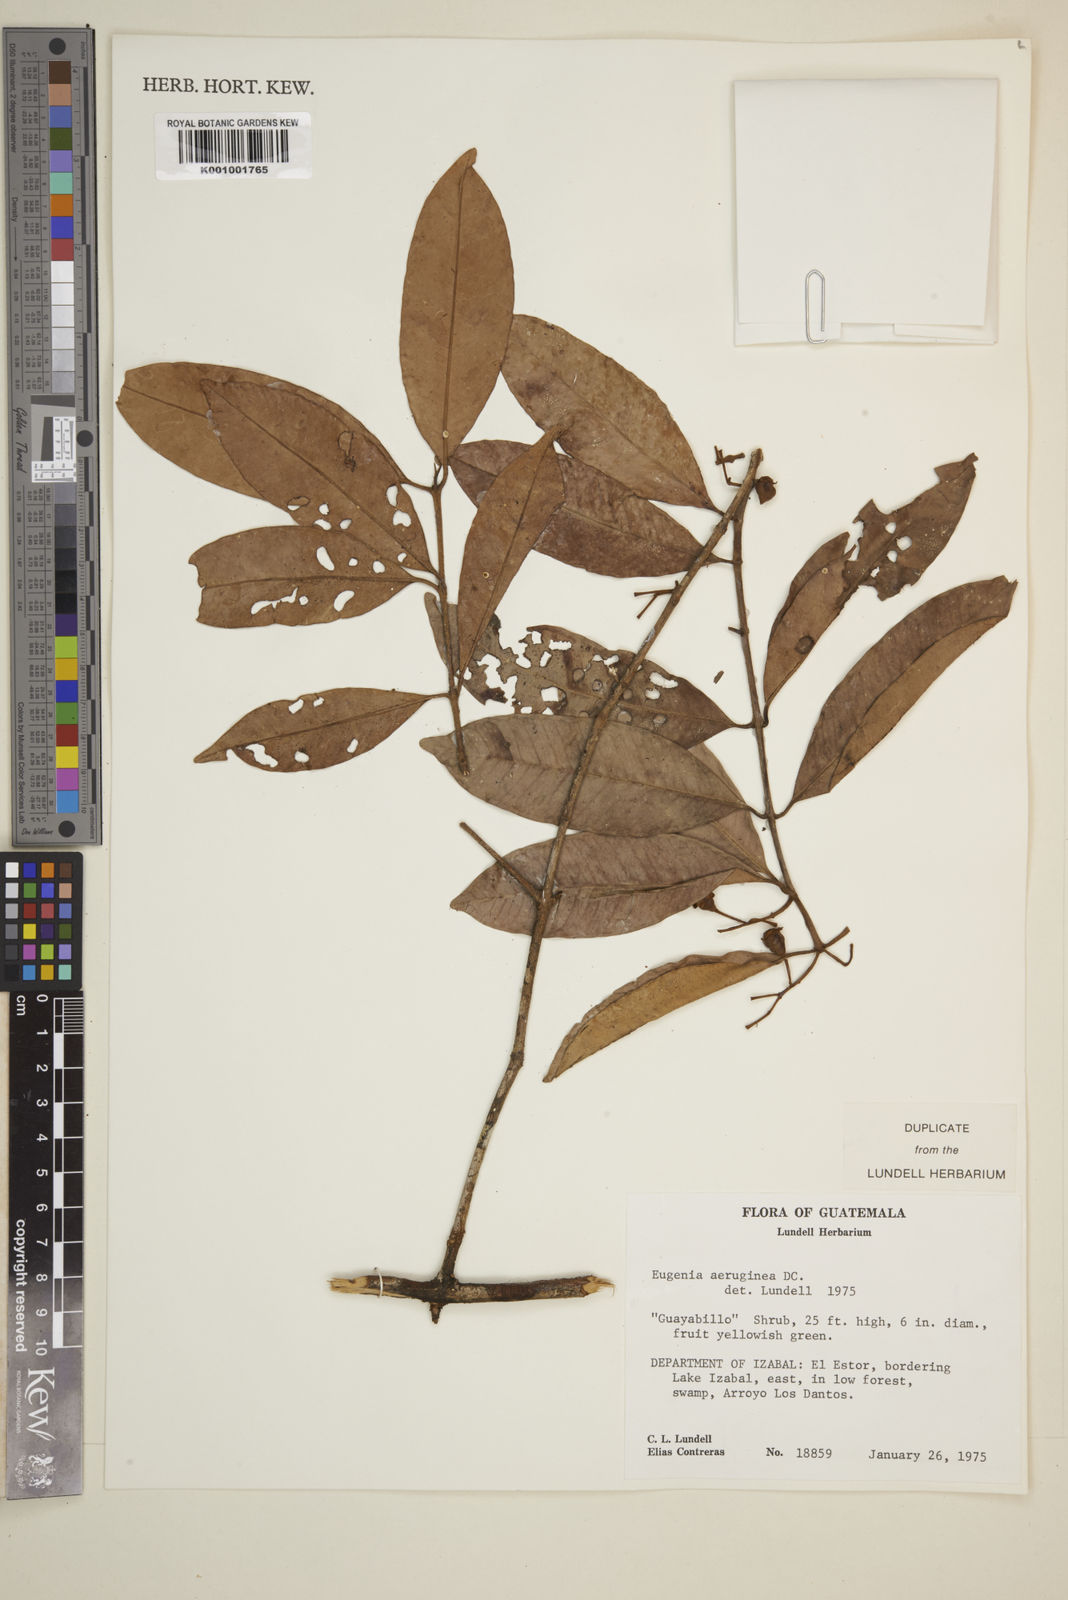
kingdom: Plantae
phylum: Tracheophyta
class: Magnoliopsida
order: Myrtales
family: Myrtaceae
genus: Eugenia
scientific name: Eugenia aeruginea
